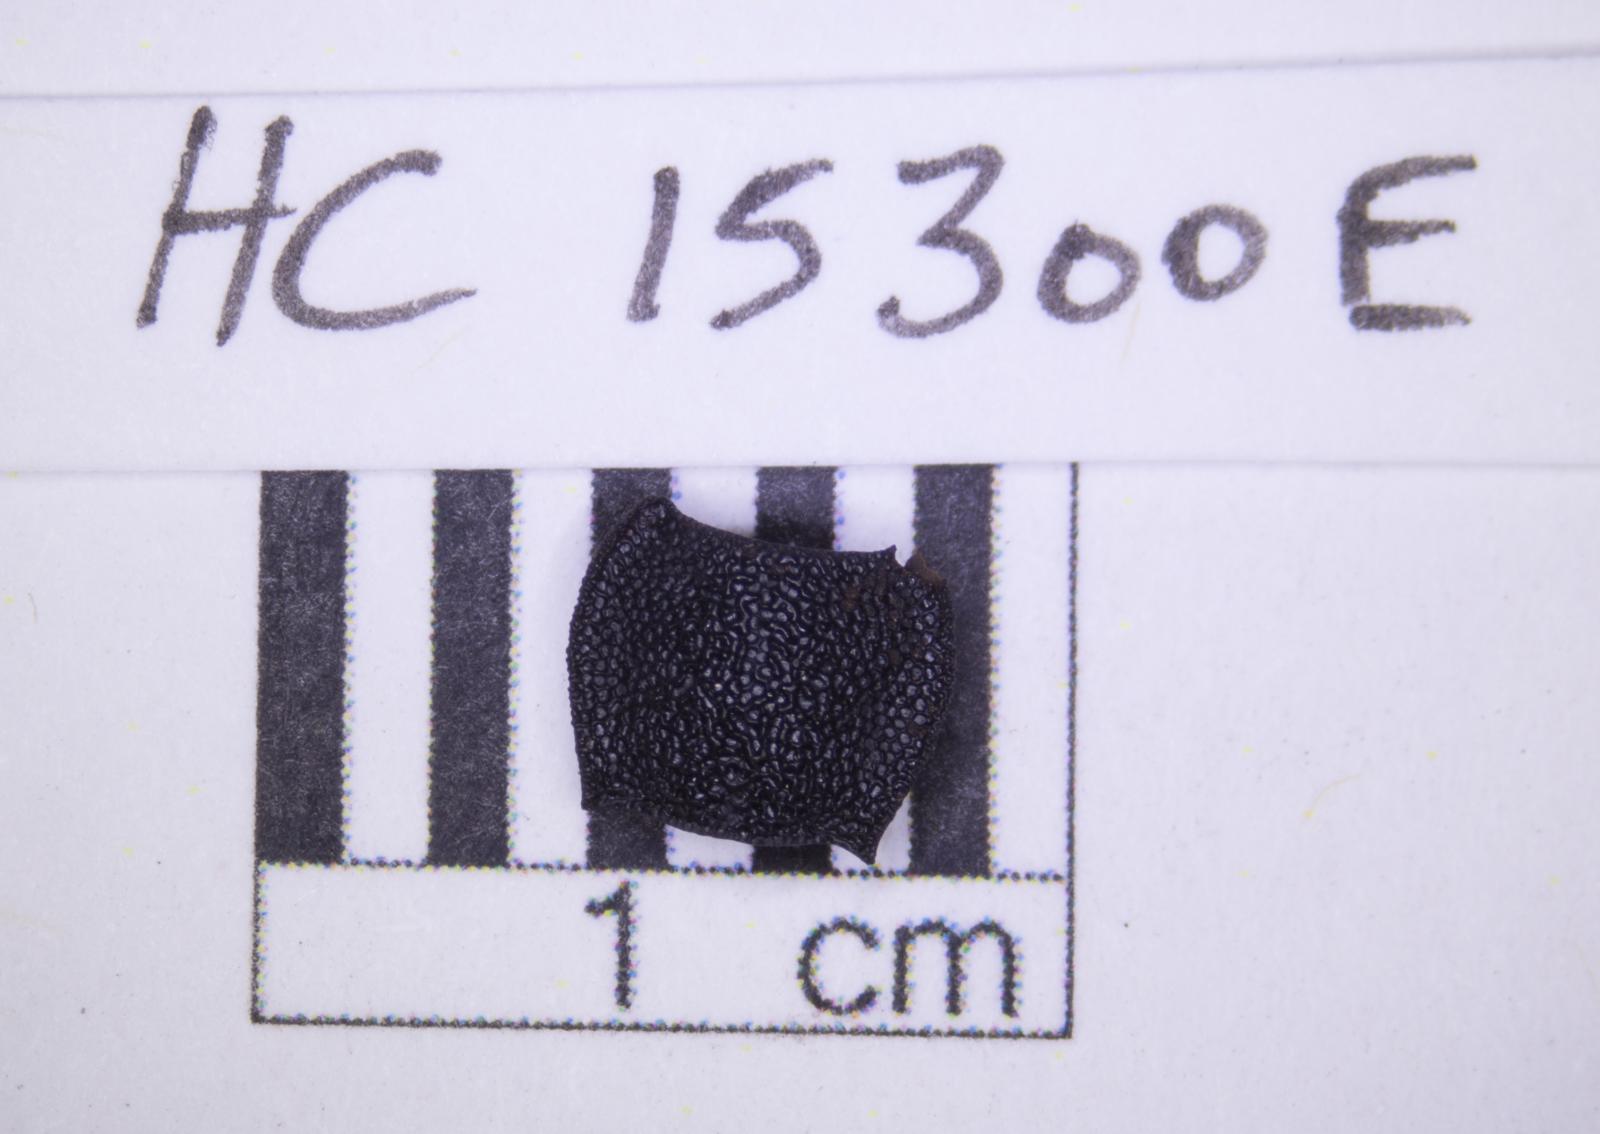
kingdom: Animalia
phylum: Arthropoda
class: Insecta
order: Coleoptera
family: Tenebrionidae
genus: Nyctoporis
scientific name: Nyctoporis carinata
